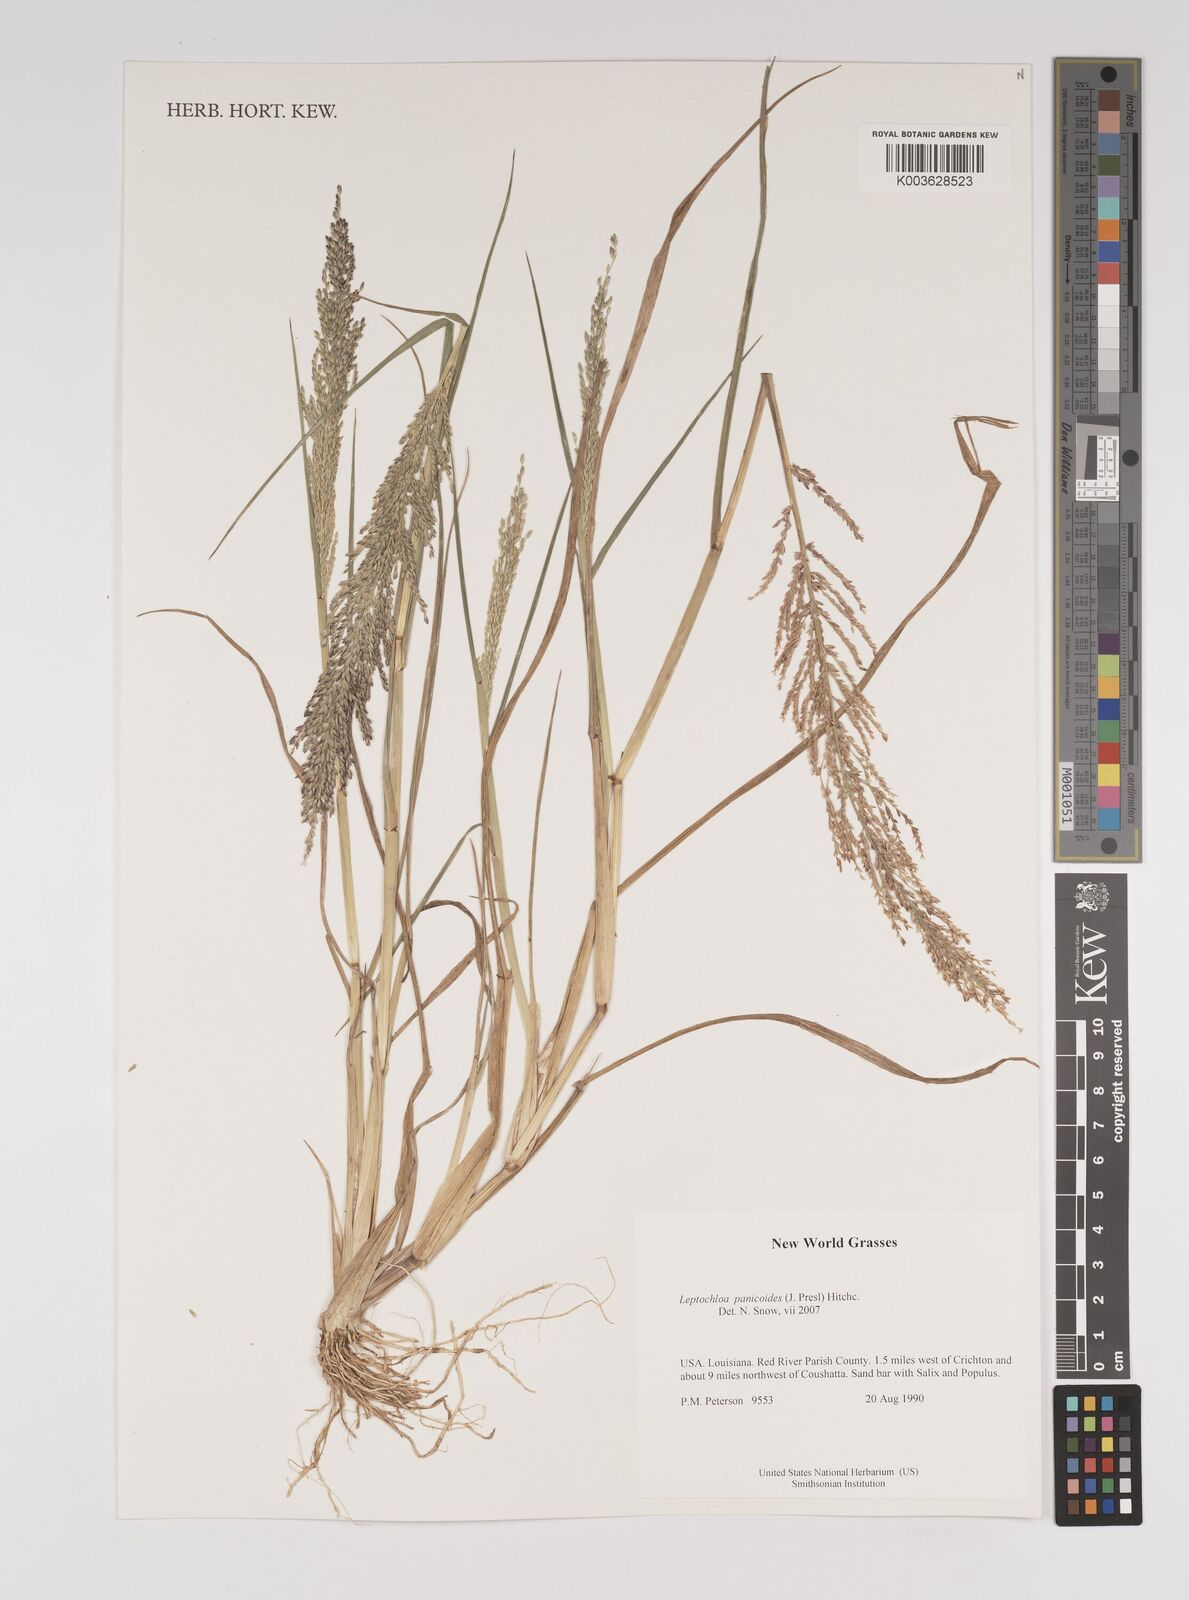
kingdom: Plantae
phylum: Tracheophyta
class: Liliopsida
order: Poales
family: Poaceae
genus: Leptochloa
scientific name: Leptochloa panicoides
